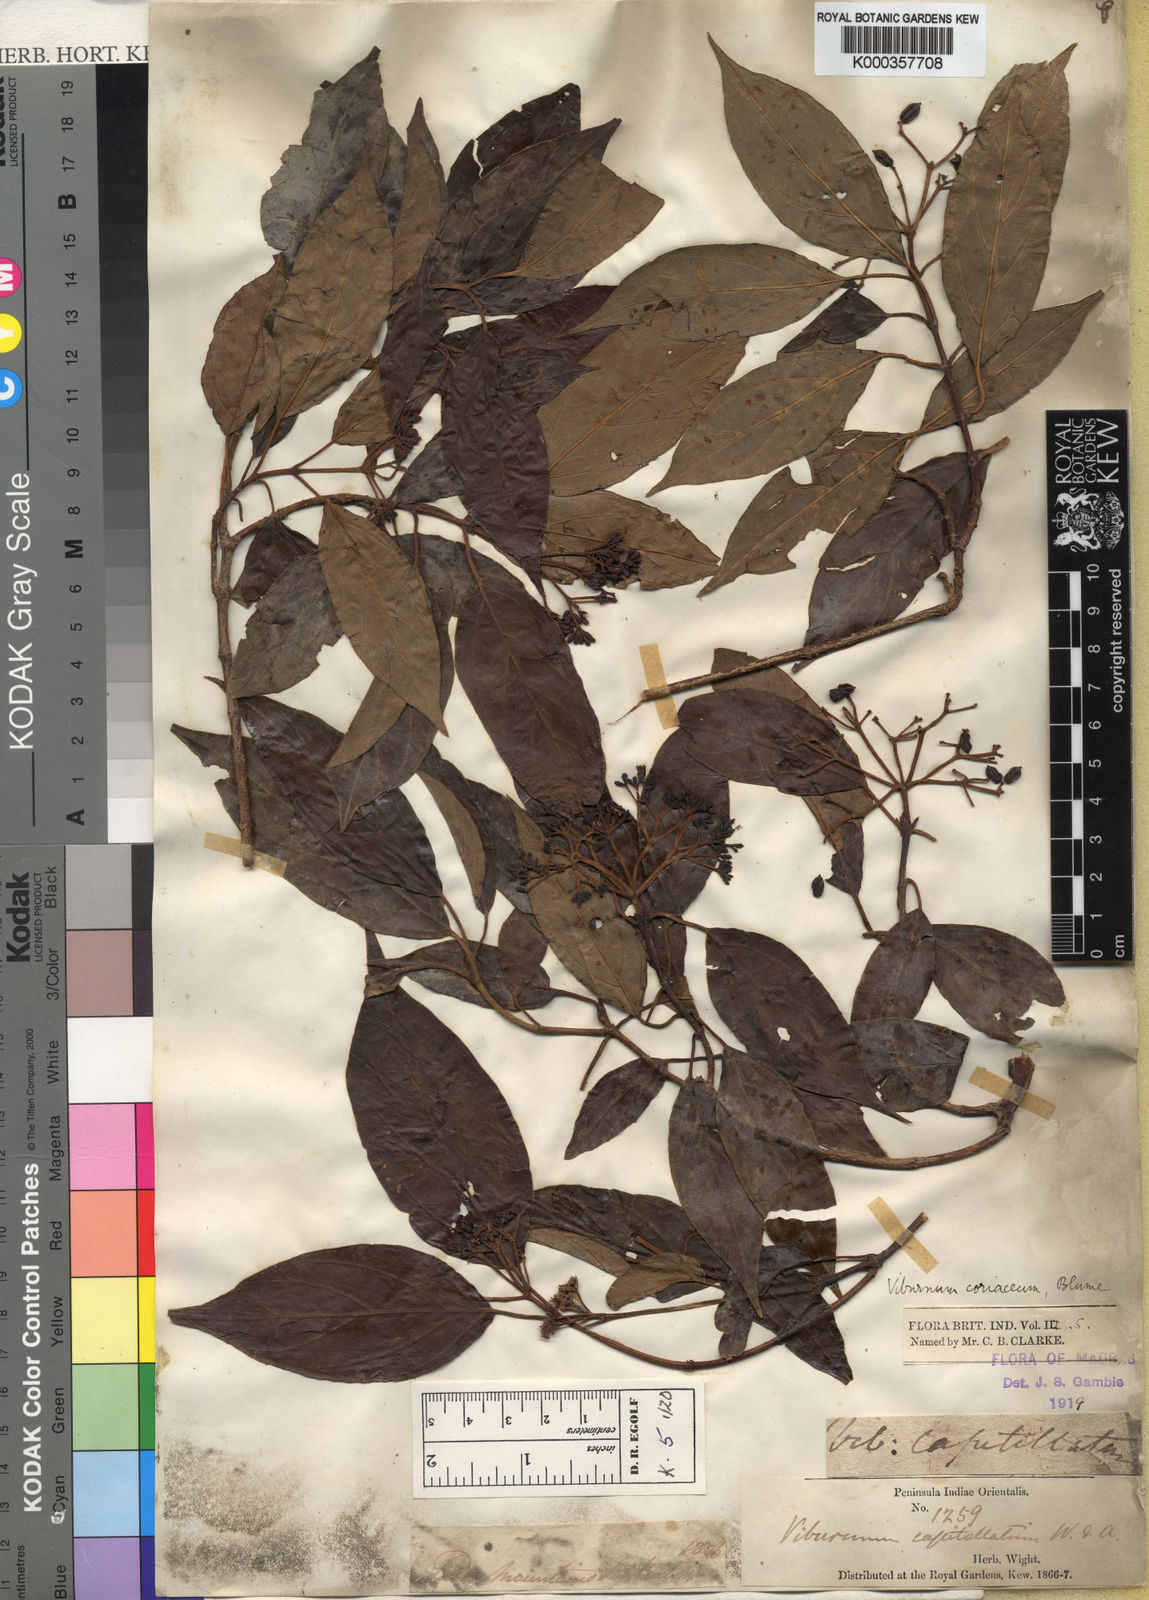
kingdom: Plantae
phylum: Tracheophyta
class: Magnoliopsida
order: Dipsacales
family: Viburnaceae
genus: Viburnum
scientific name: Viburnum coriaceum
